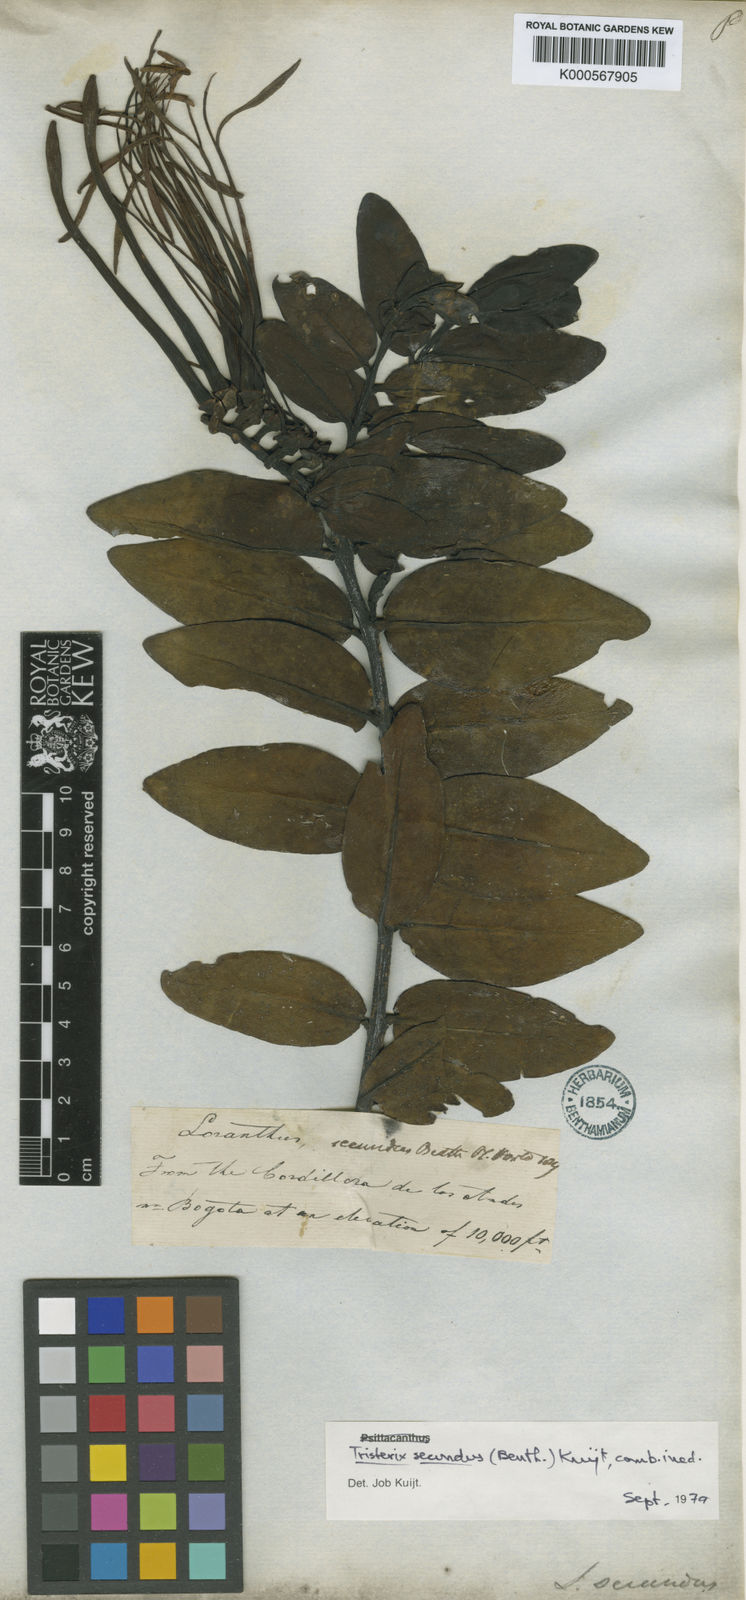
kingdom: Plantae
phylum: Tracheophyta
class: Magnoliopsida
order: Santalales
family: Loranthaceae
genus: Tristerix
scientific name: Tristerix secundus
